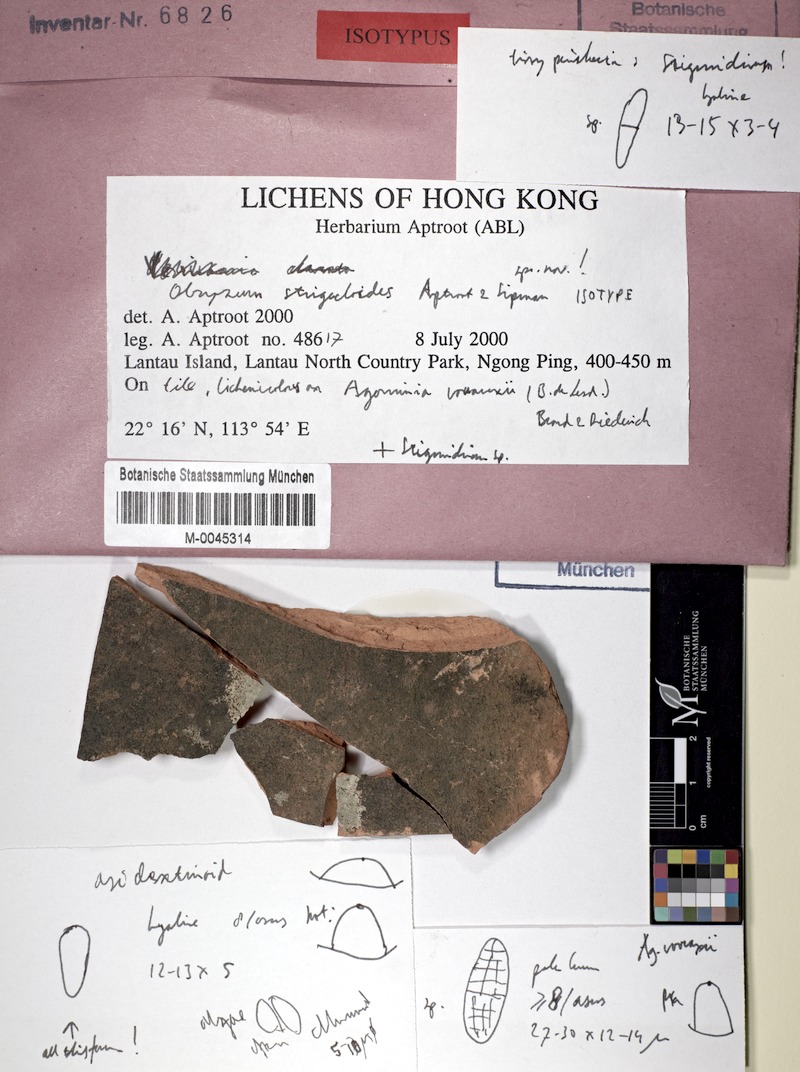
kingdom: Fungi
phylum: Ascomycota
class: Dothideomycetes
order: Capnodiales
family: Mycosphaerellaceae
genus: Stigmidium
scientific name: Stigmidium
